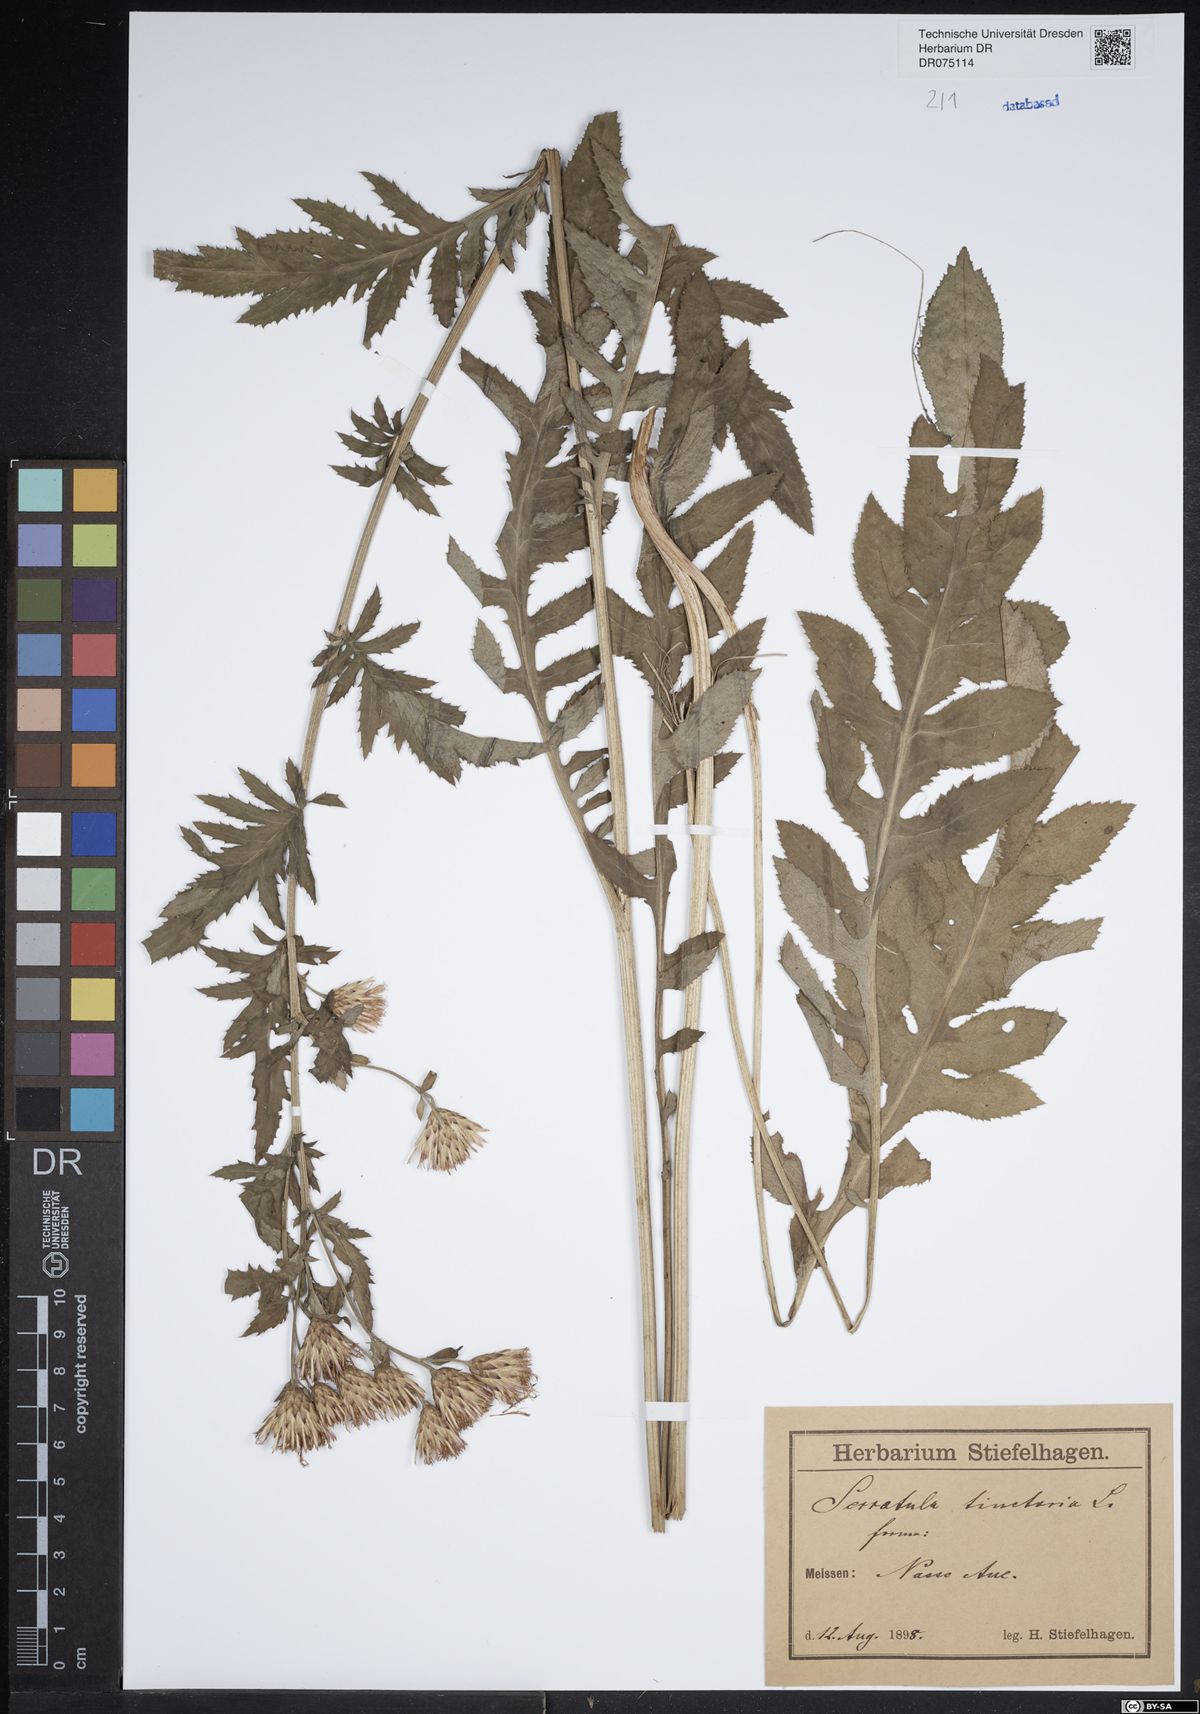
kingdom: Plantae
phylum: Tracheophyta
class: Magnoliopsida
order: Asterales
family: Asteraceae
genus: Serratula
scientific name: Serratula tinctoria
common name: Saw-wort
